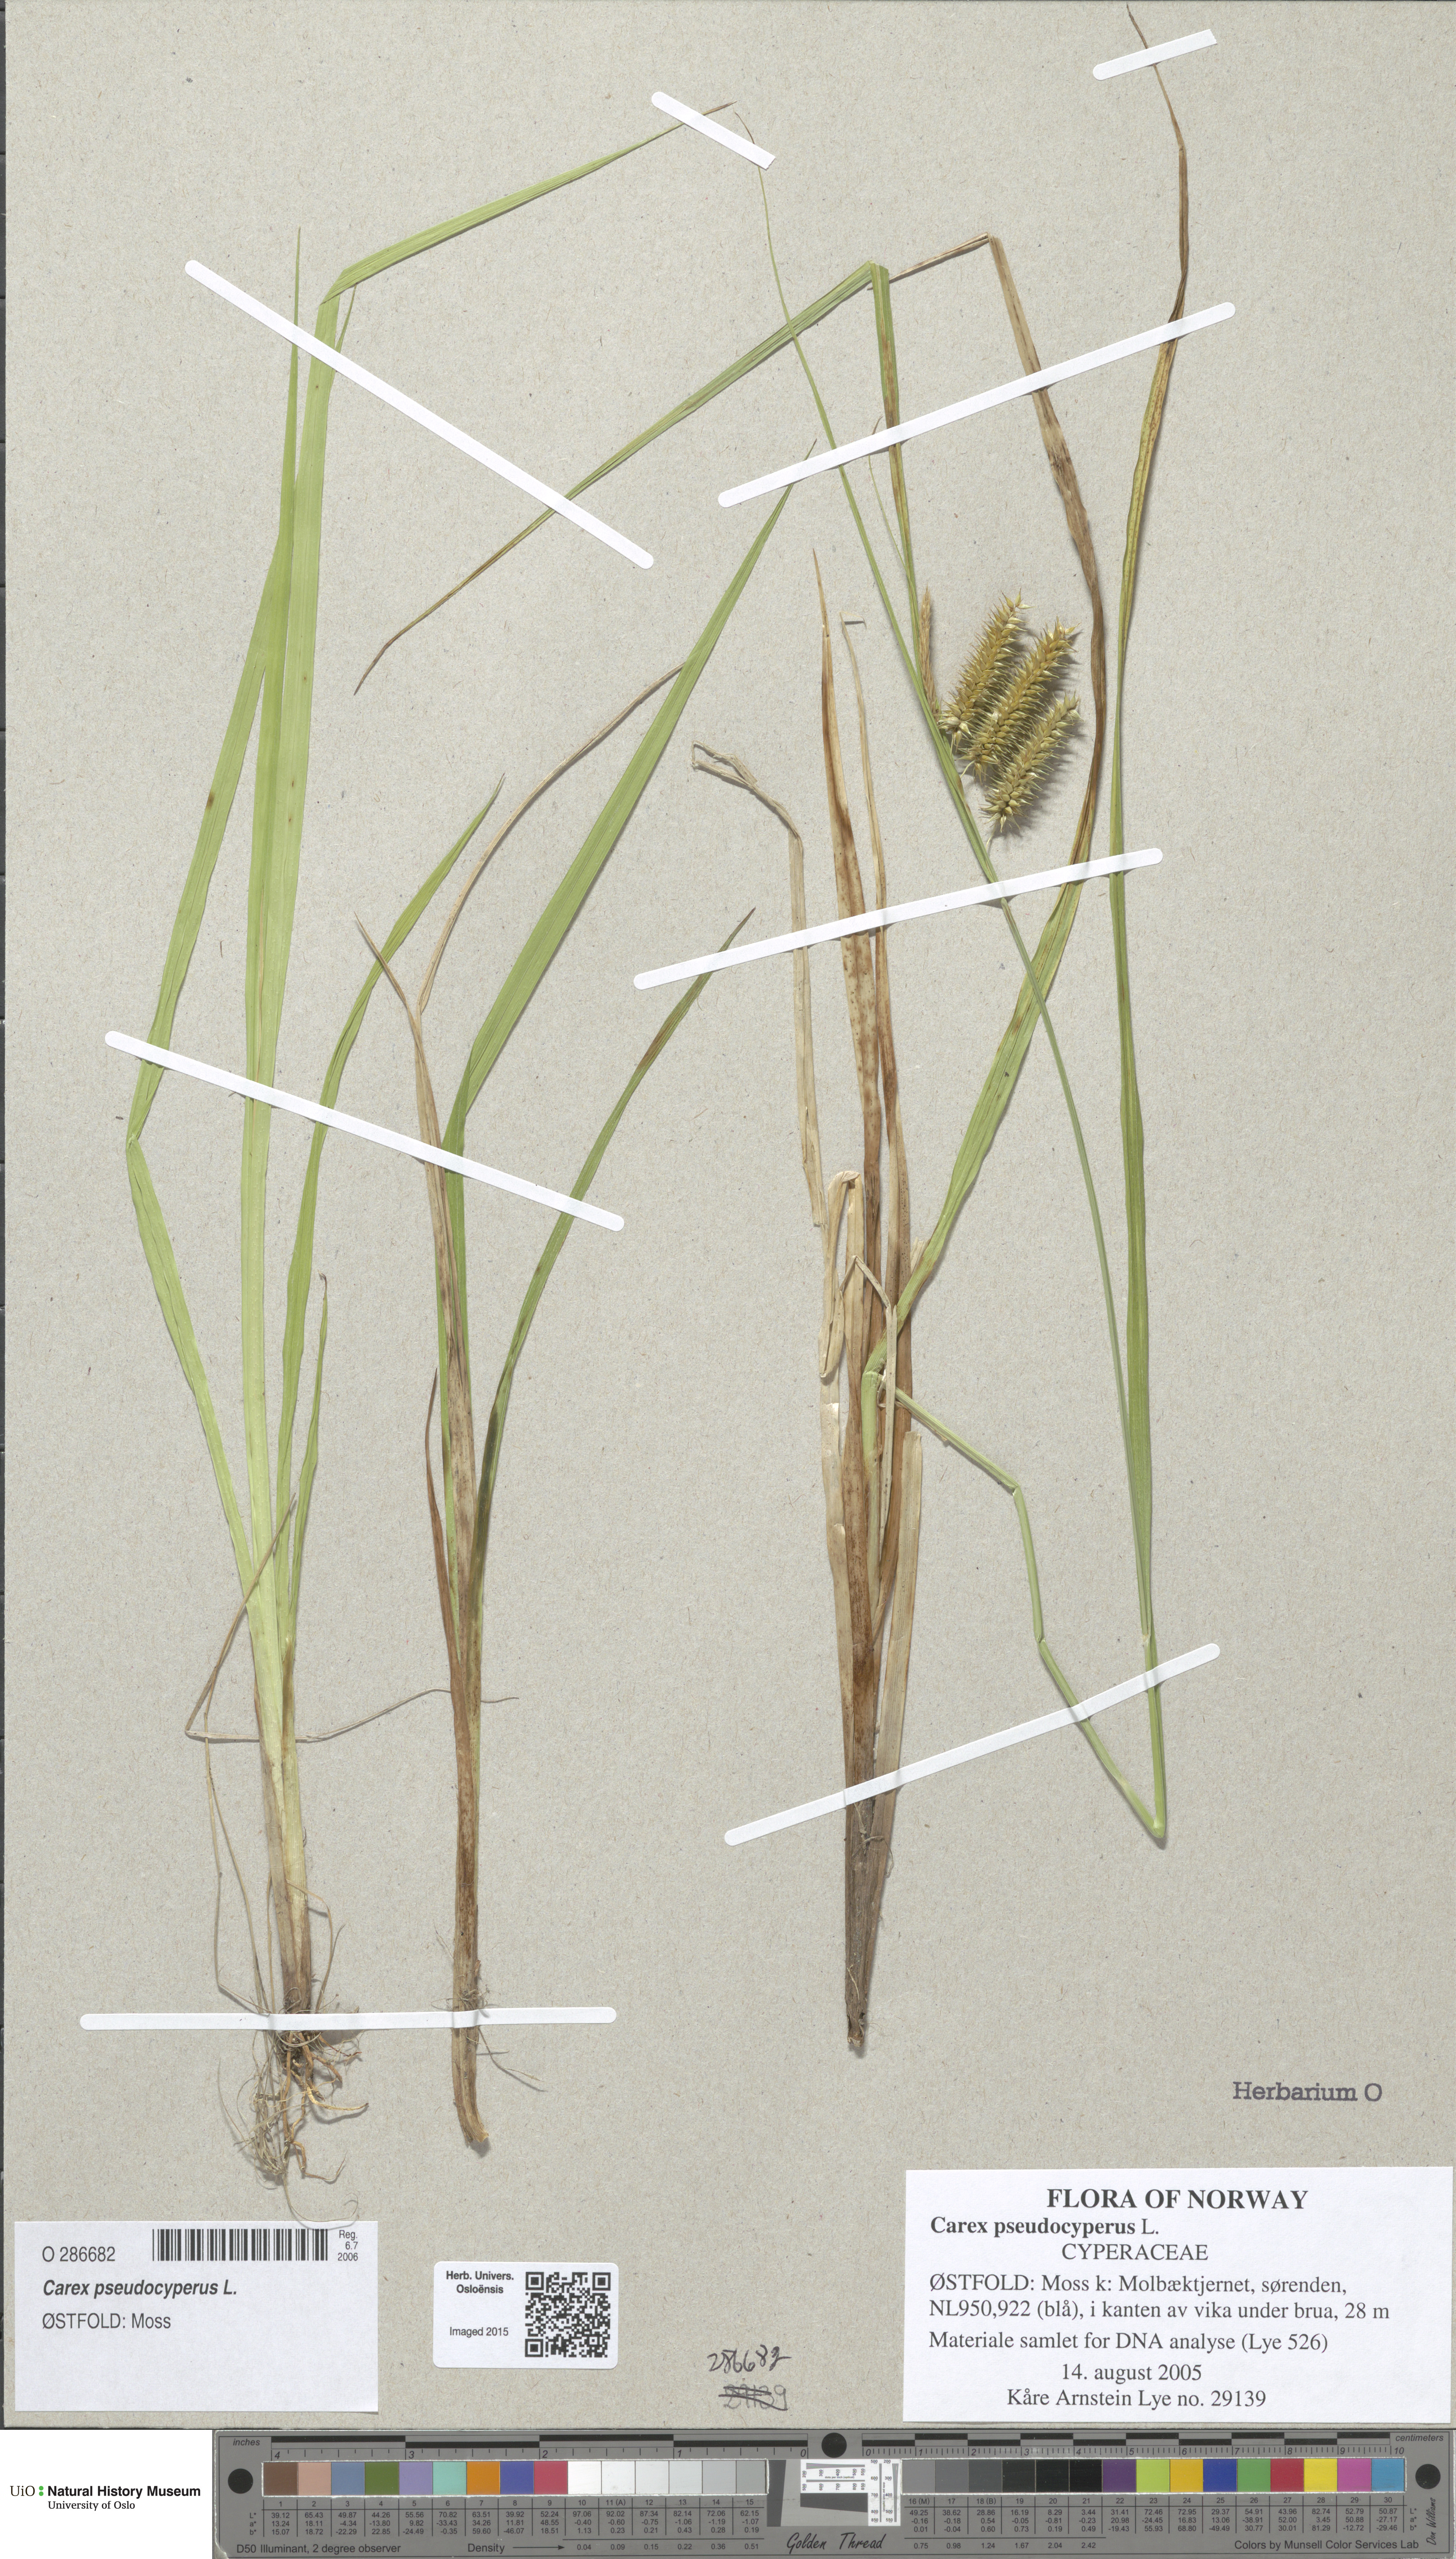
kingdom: Plantae
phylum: Tracheophyta
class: Liliopsida
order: Poales
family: Cyperaceae
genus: Carex
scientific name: Carex pseudocyperus
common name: Cyperus sedge
